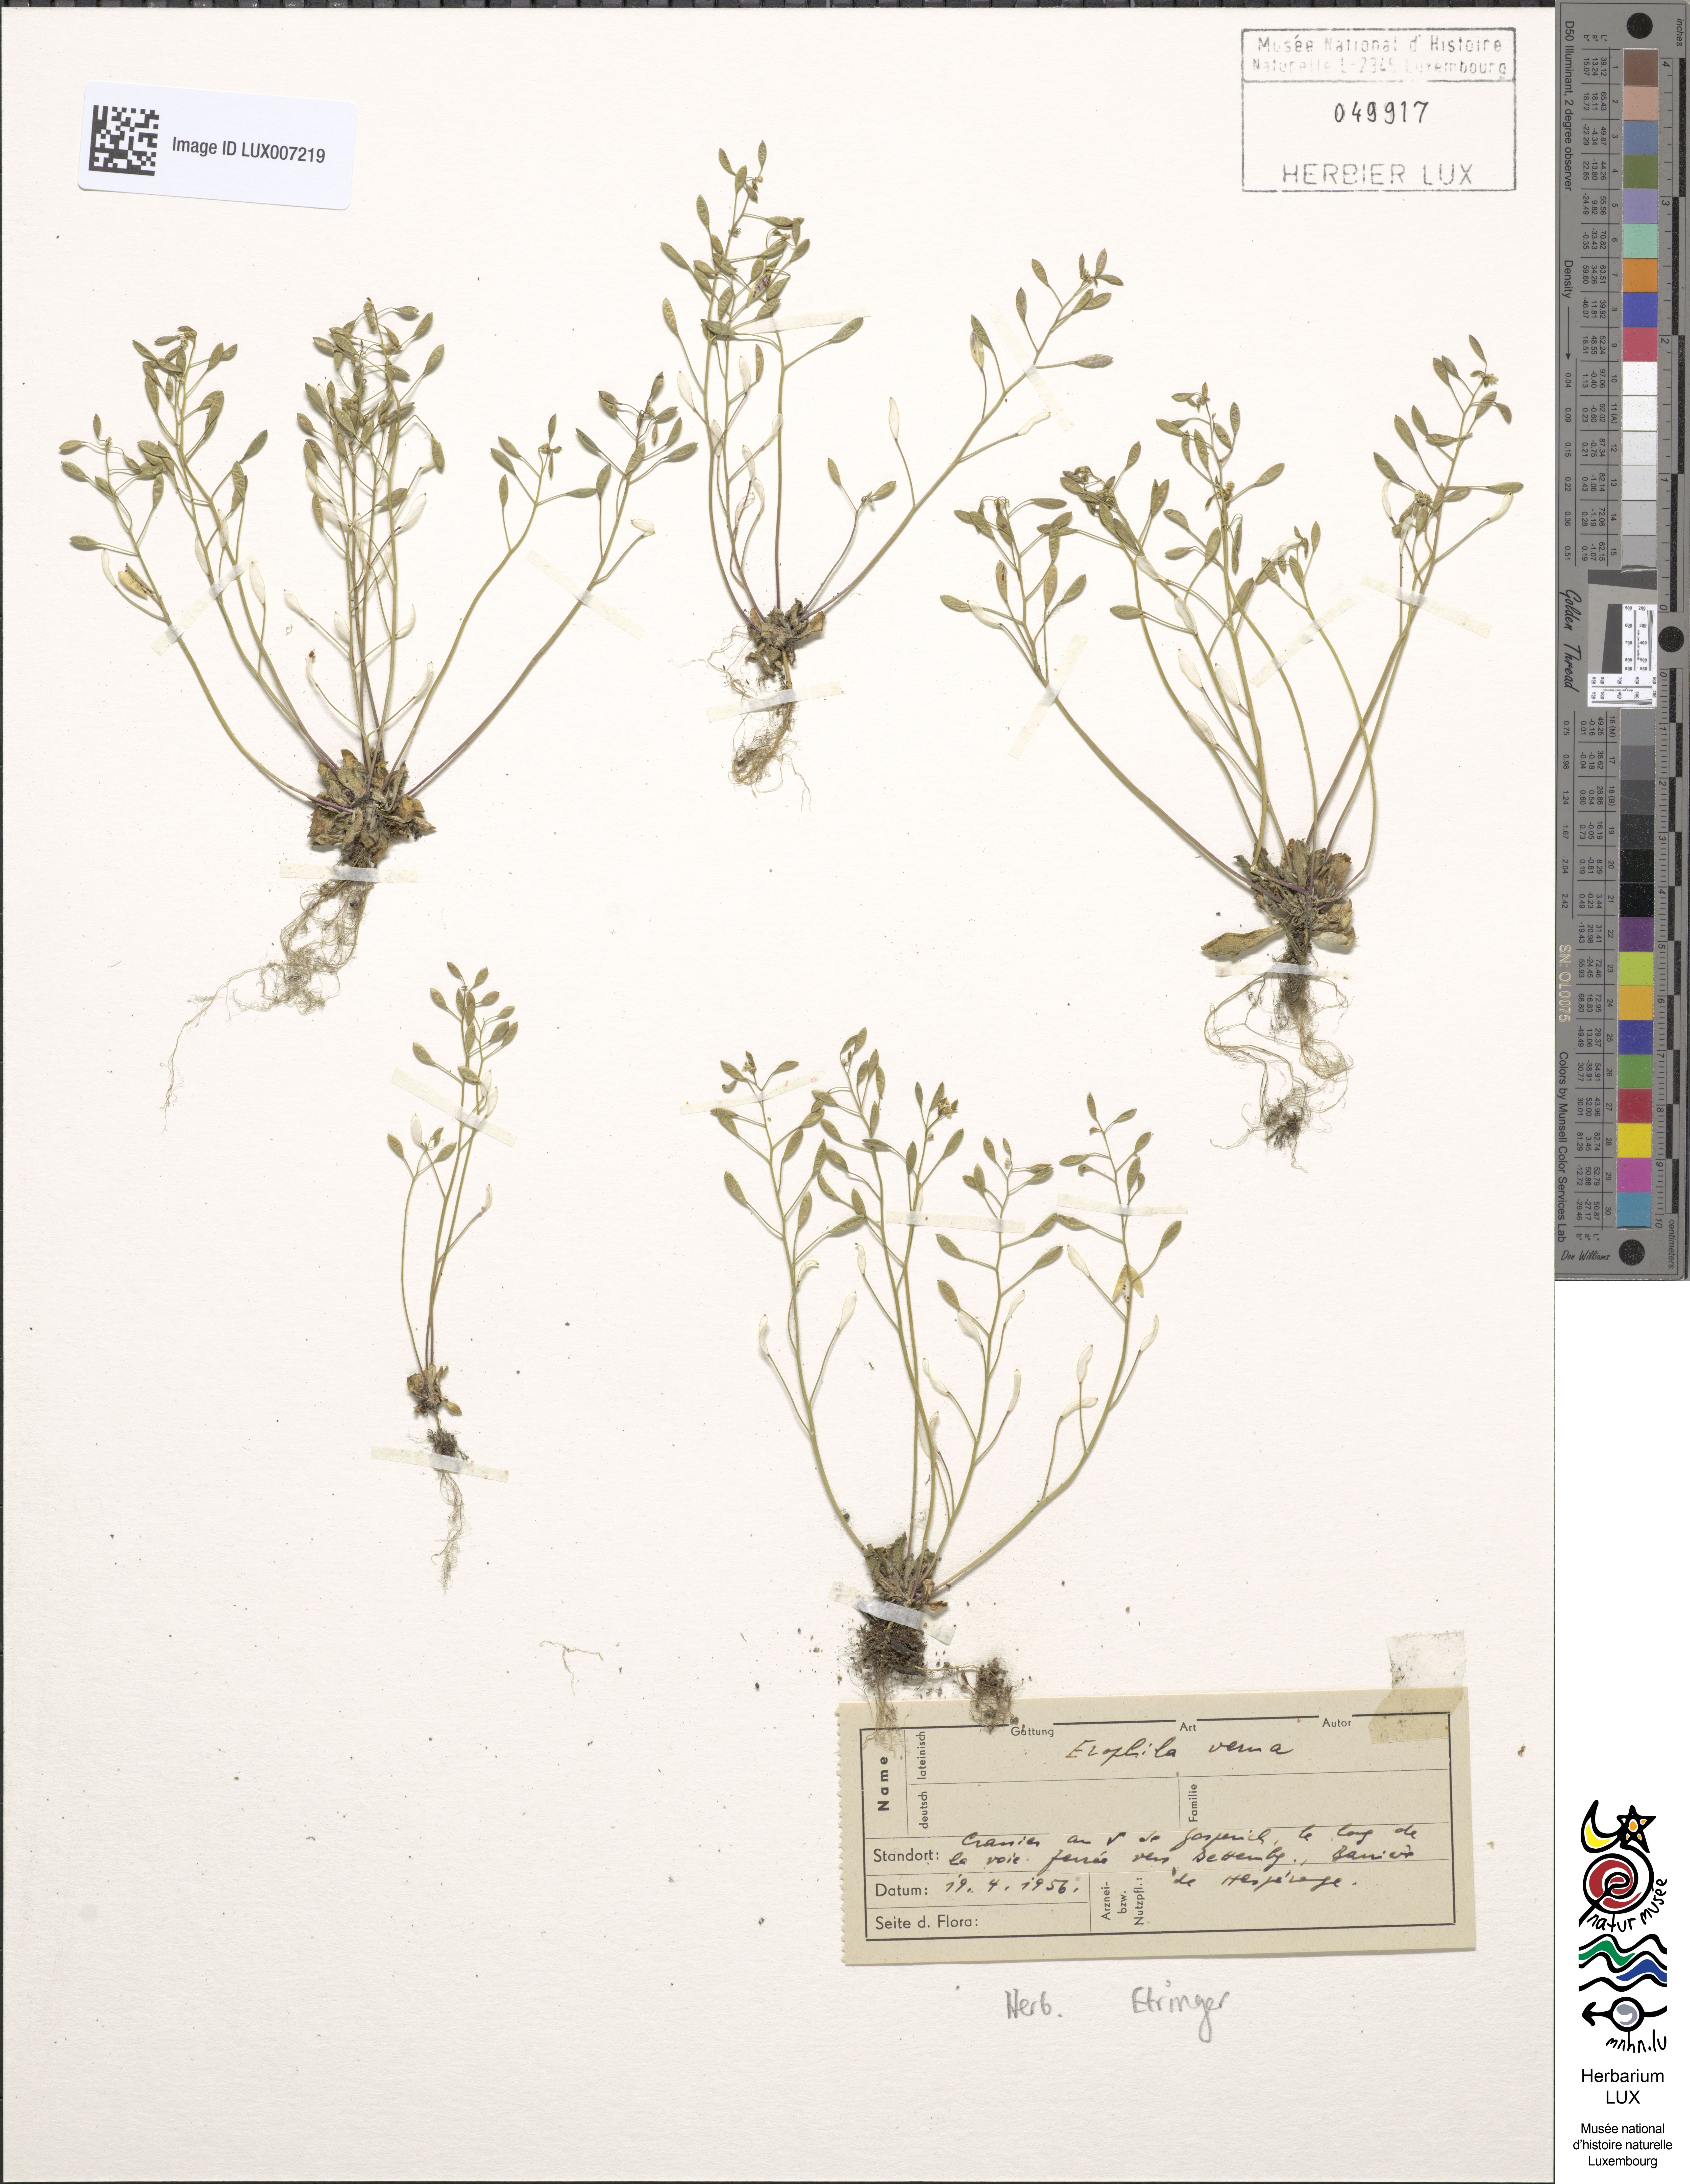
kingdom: Plantae
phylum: Tracheophyta
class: Magnoliopsida
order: Brassicales
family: Brassicaceae
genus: Draba
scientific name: Draba verna
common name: Spring draba
